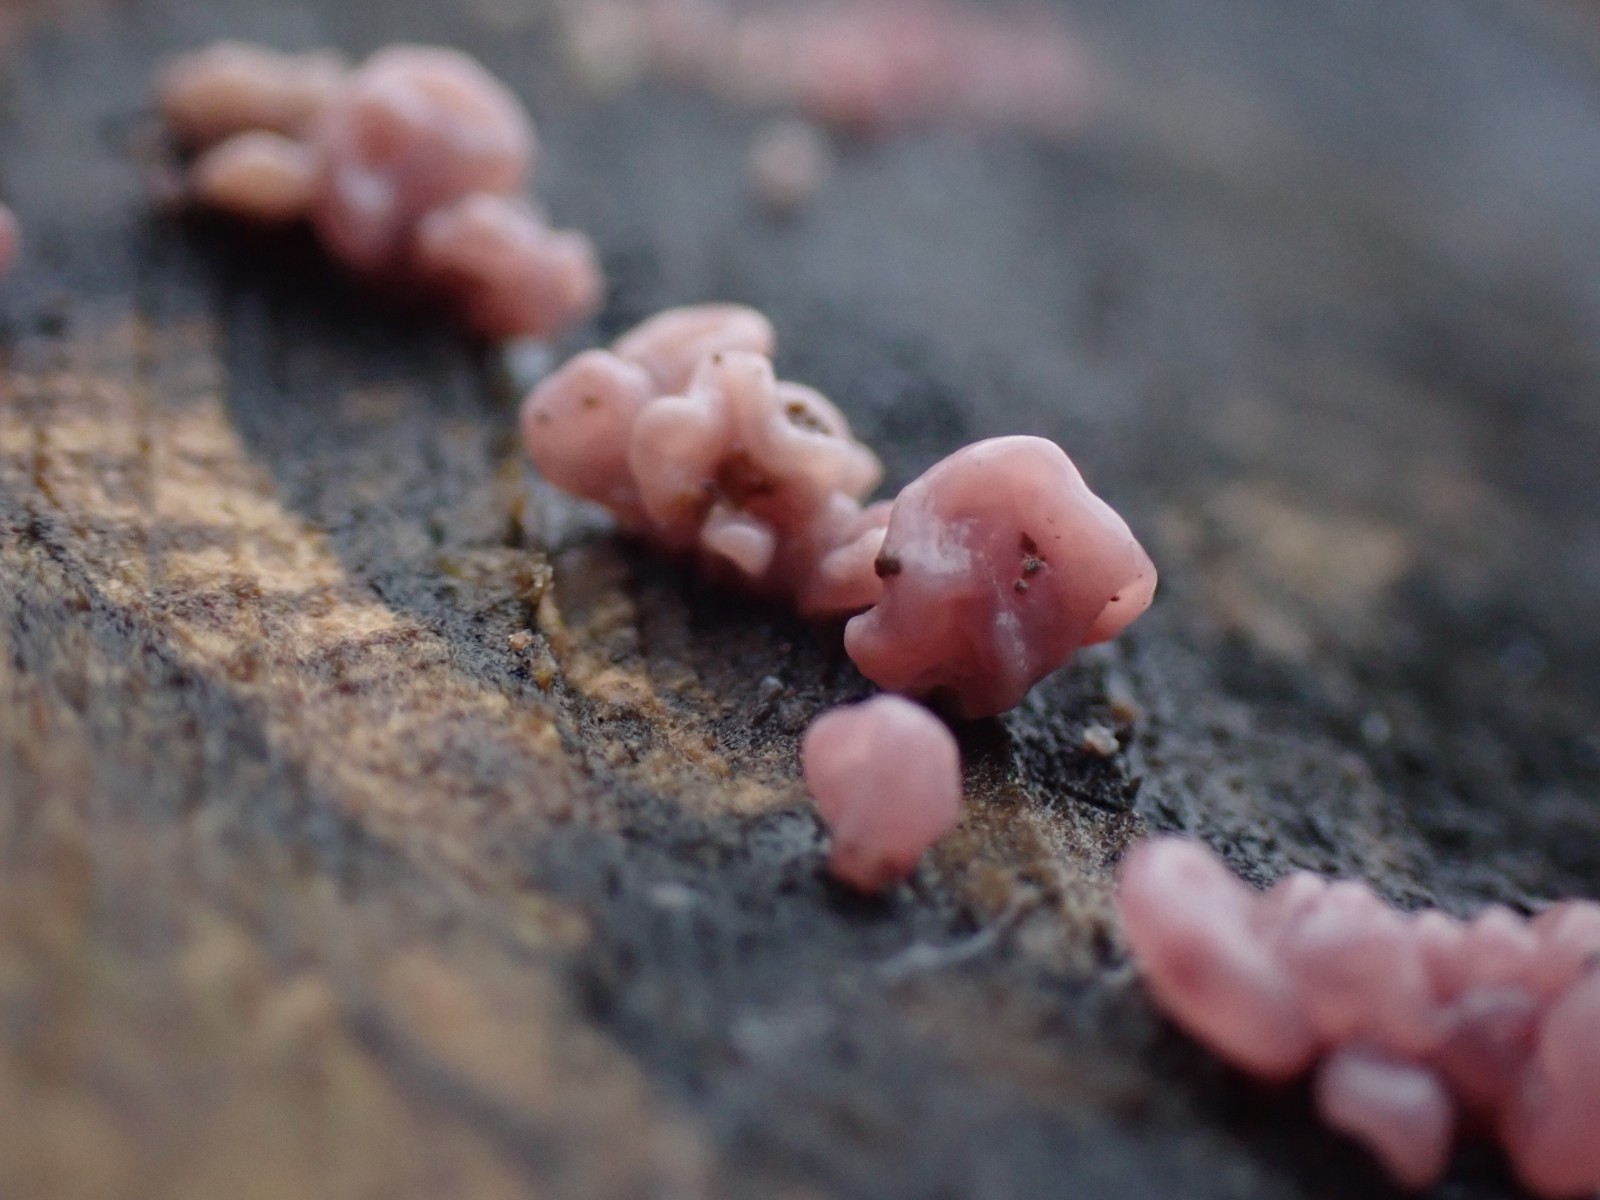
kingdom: Fungi
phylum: Ascomycota
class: Leotiomycetes
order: Helotiales
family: Gelatinodiscaceae
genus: Ascocoryne
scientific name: Ascocoryne sarcoides
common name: rødlilla sejskive
